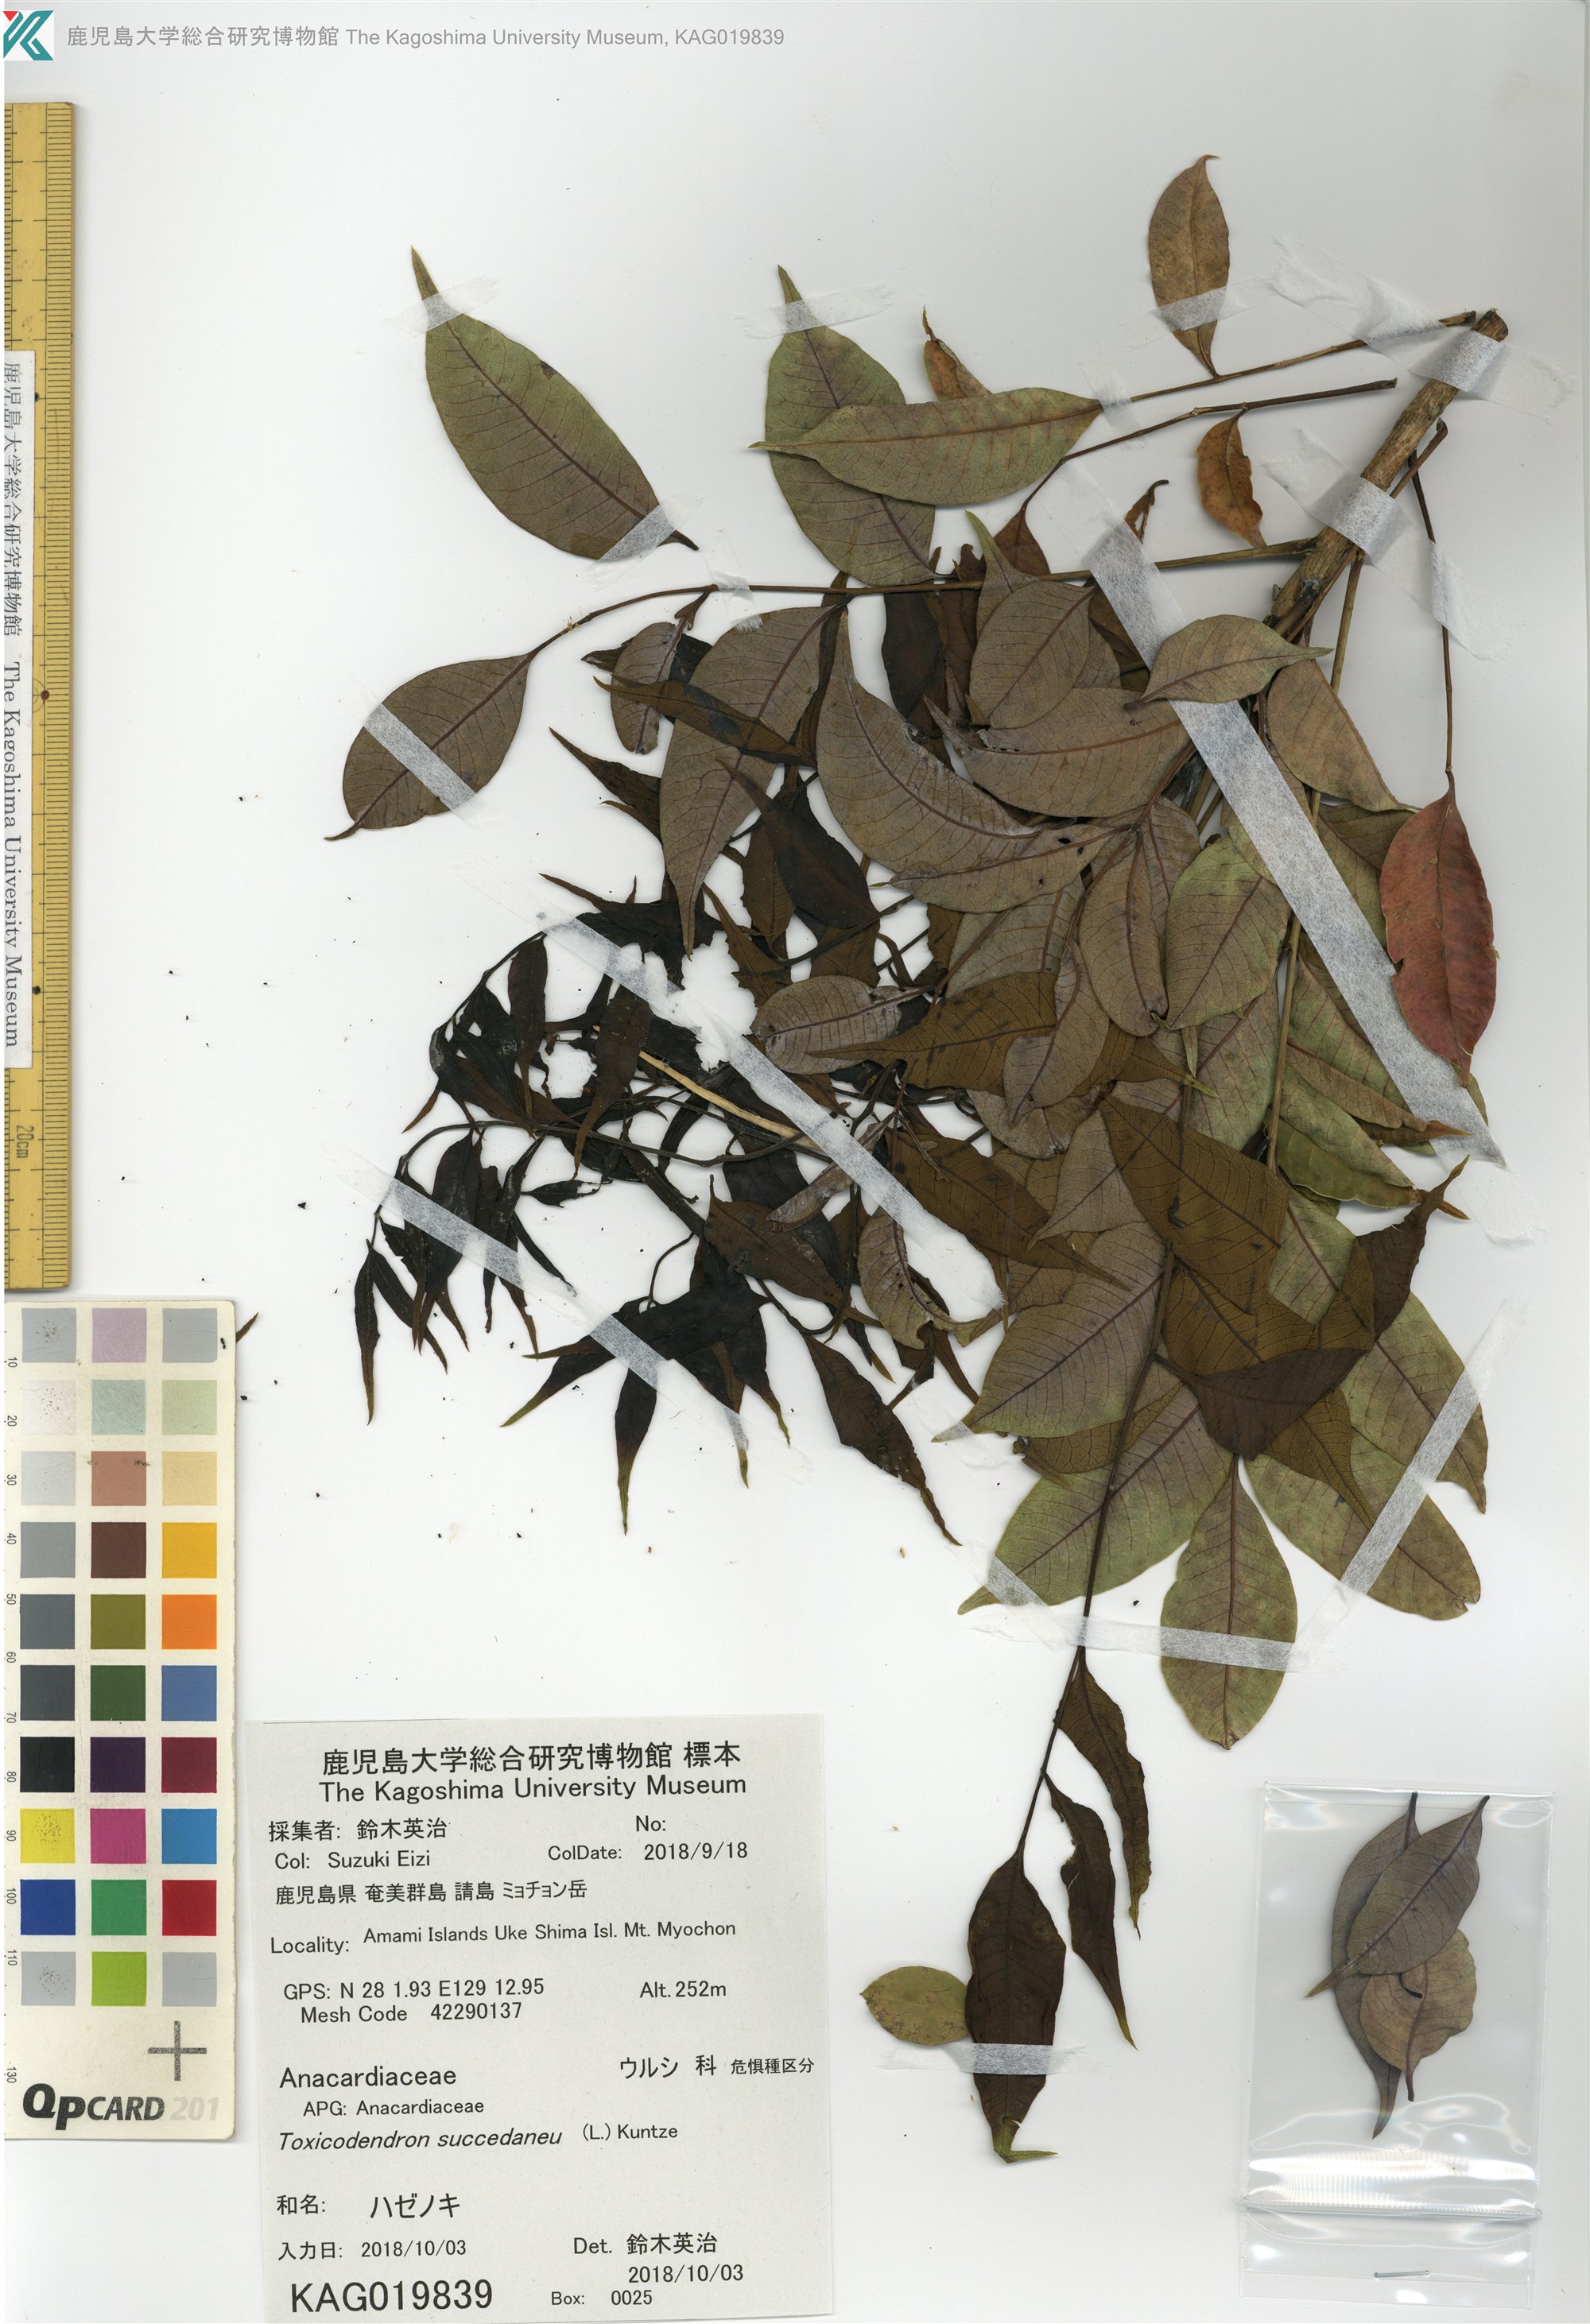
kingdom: Plantae
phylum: Tracheophyta
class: Magnoliopsida
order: Sapindales
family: Anacardiaceae
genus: Toxicodendron
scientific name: Toxicodendron succedaneum
